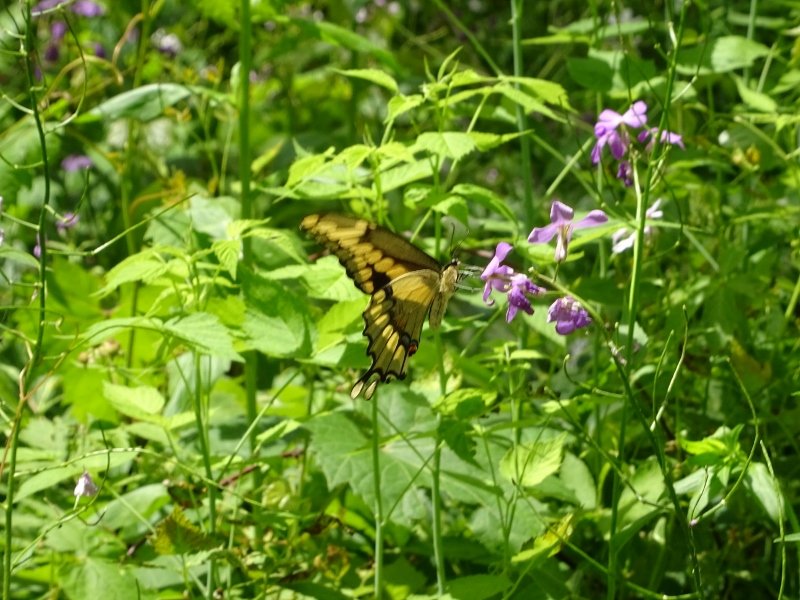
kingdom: Animalia
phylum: Arthropoda
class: Insecta
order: Lepidoptera
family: Papilionidae
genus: Papilio
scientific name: Papilio cresphontes
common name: Eastern Giant Swallowtail
